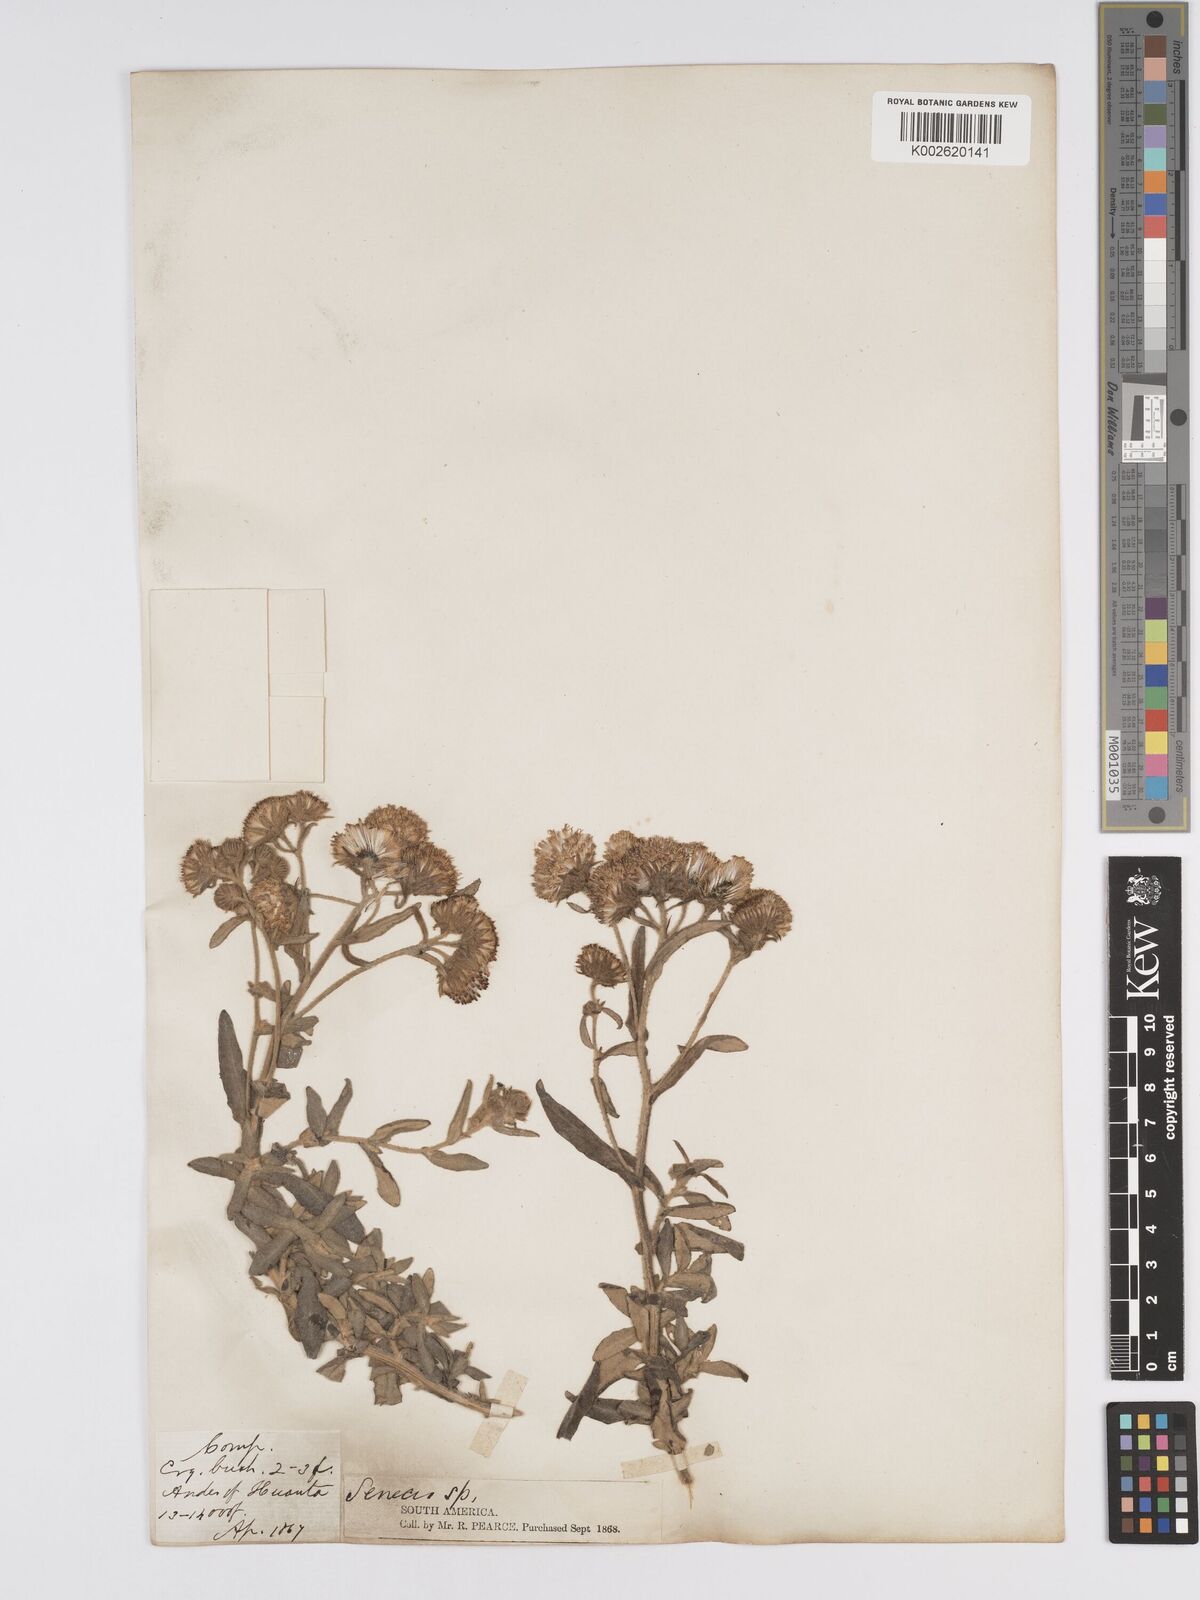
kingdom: Plantae
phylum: Tracheophyta
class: Magnoliopsida
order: Asterales
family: Asteraceae
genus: Senecio
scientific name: Senecio octophyllus
